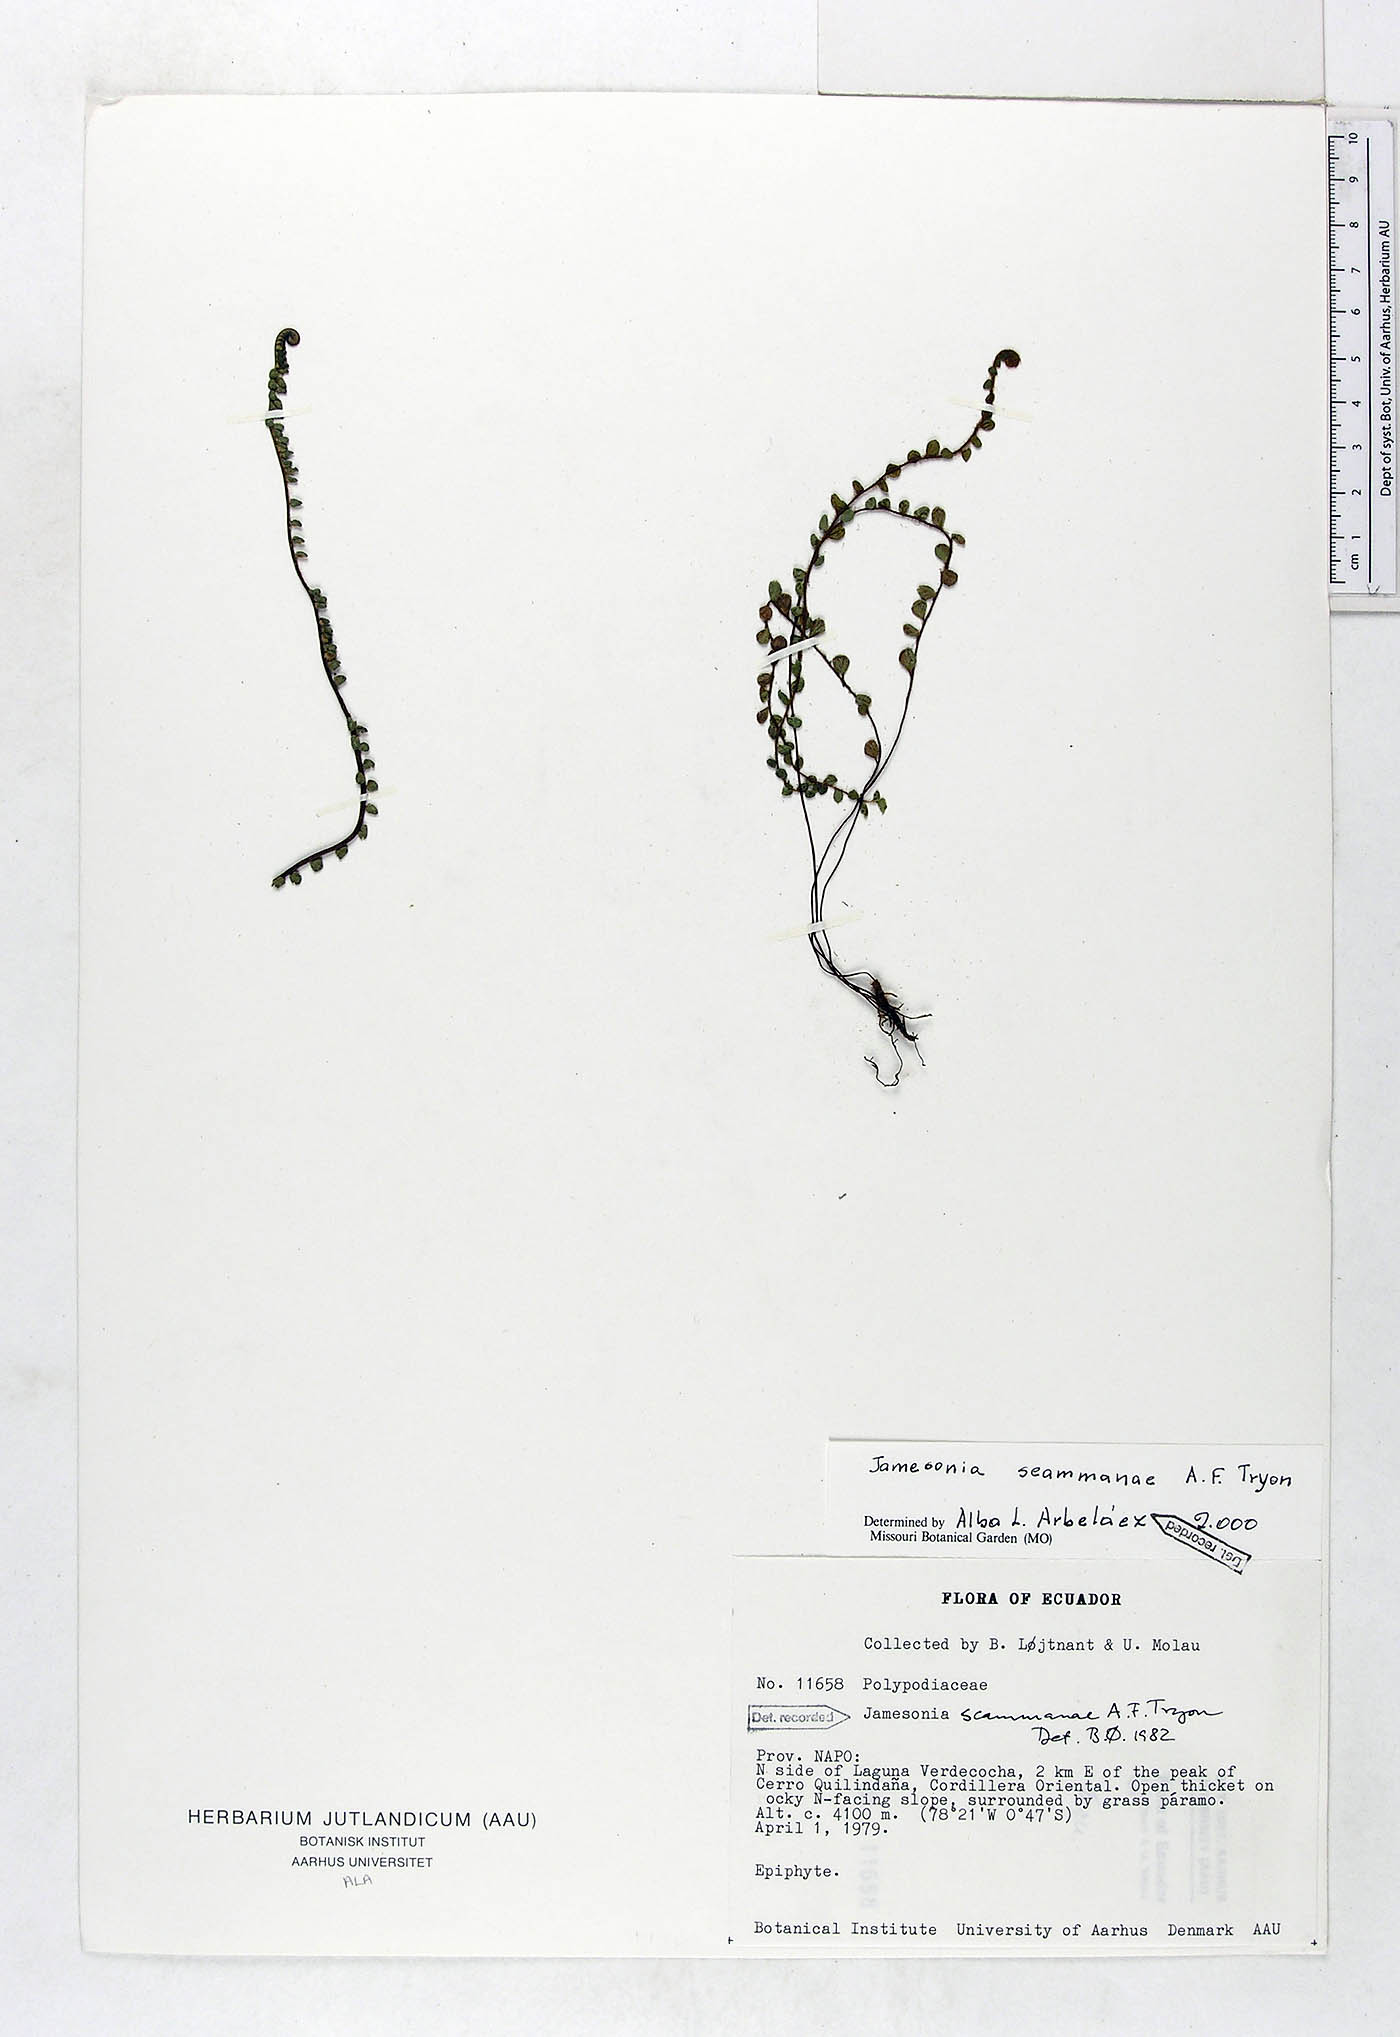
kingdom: Plantae
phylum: Tracheophyta
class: Polypodiopsida
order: Polypodiales
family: Pteridaceae
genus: Jamesonia
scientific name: Jamesonia scammanae
